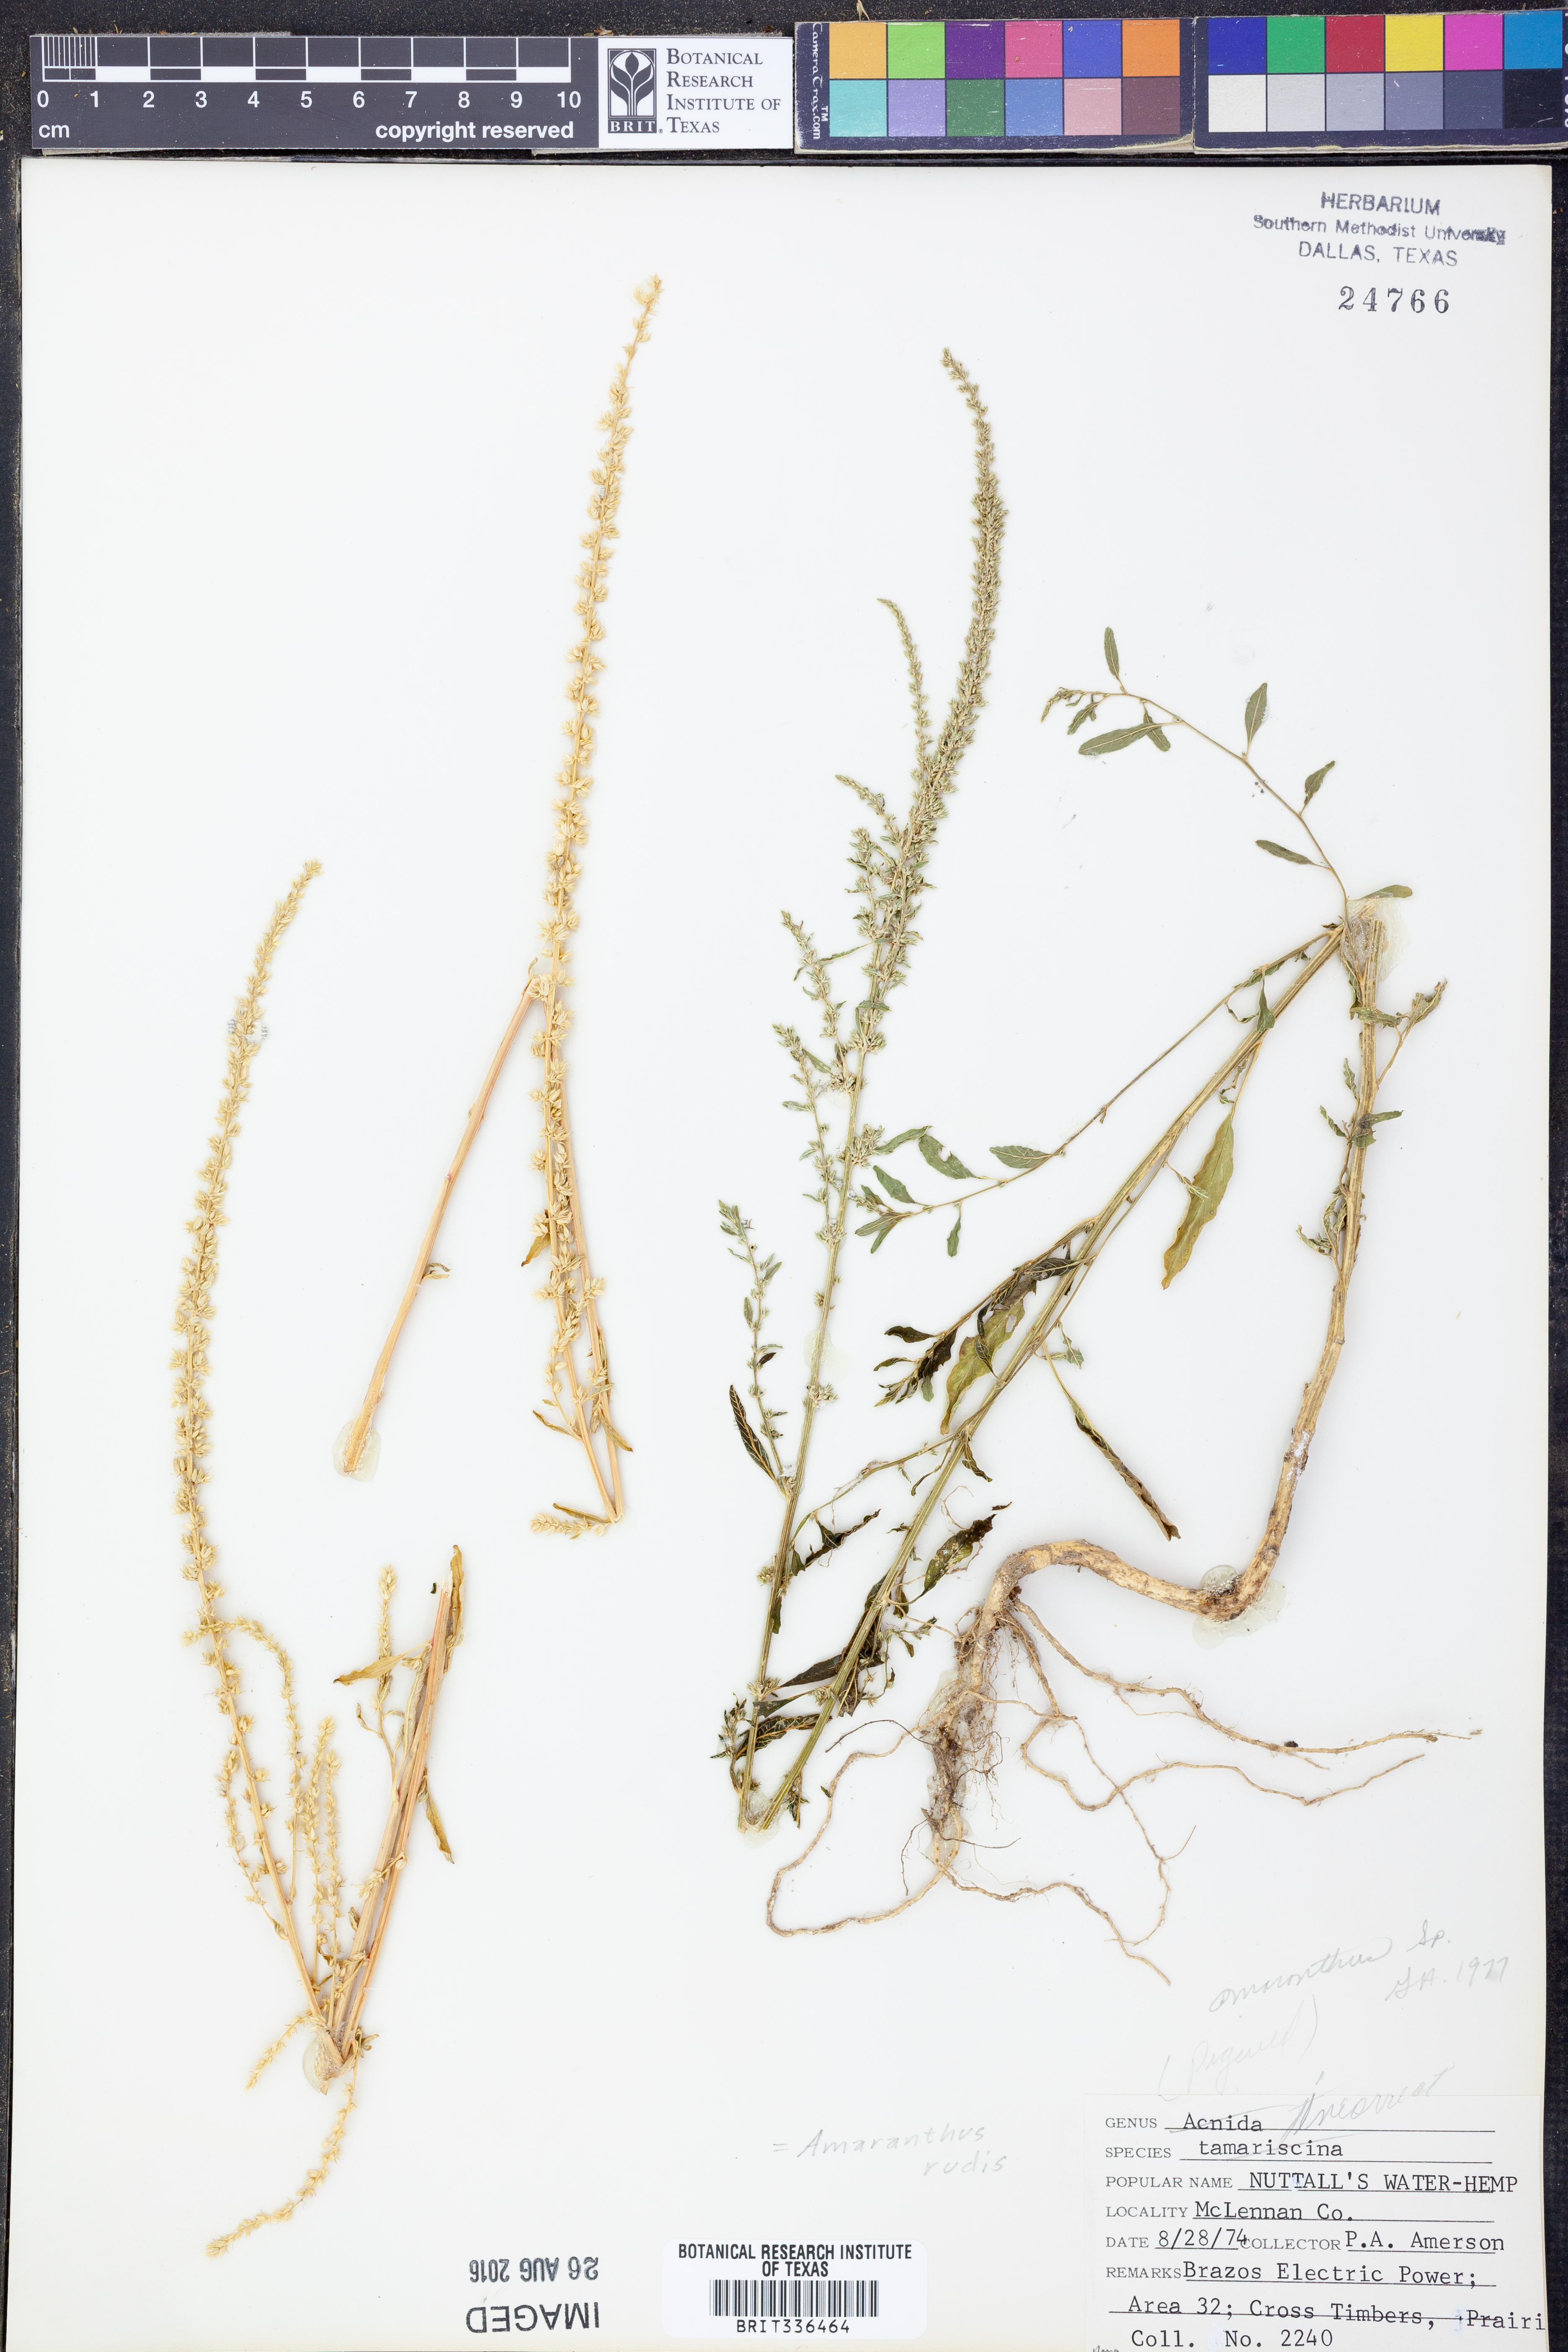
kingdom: Plantae
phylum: Tracheophyta
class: Magnoliopsida
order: Caryophyllales
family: Amaranthaceae
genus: Amaranthus
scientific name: Amaranthus tuberculatus
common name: Rough-fruit amaranth
